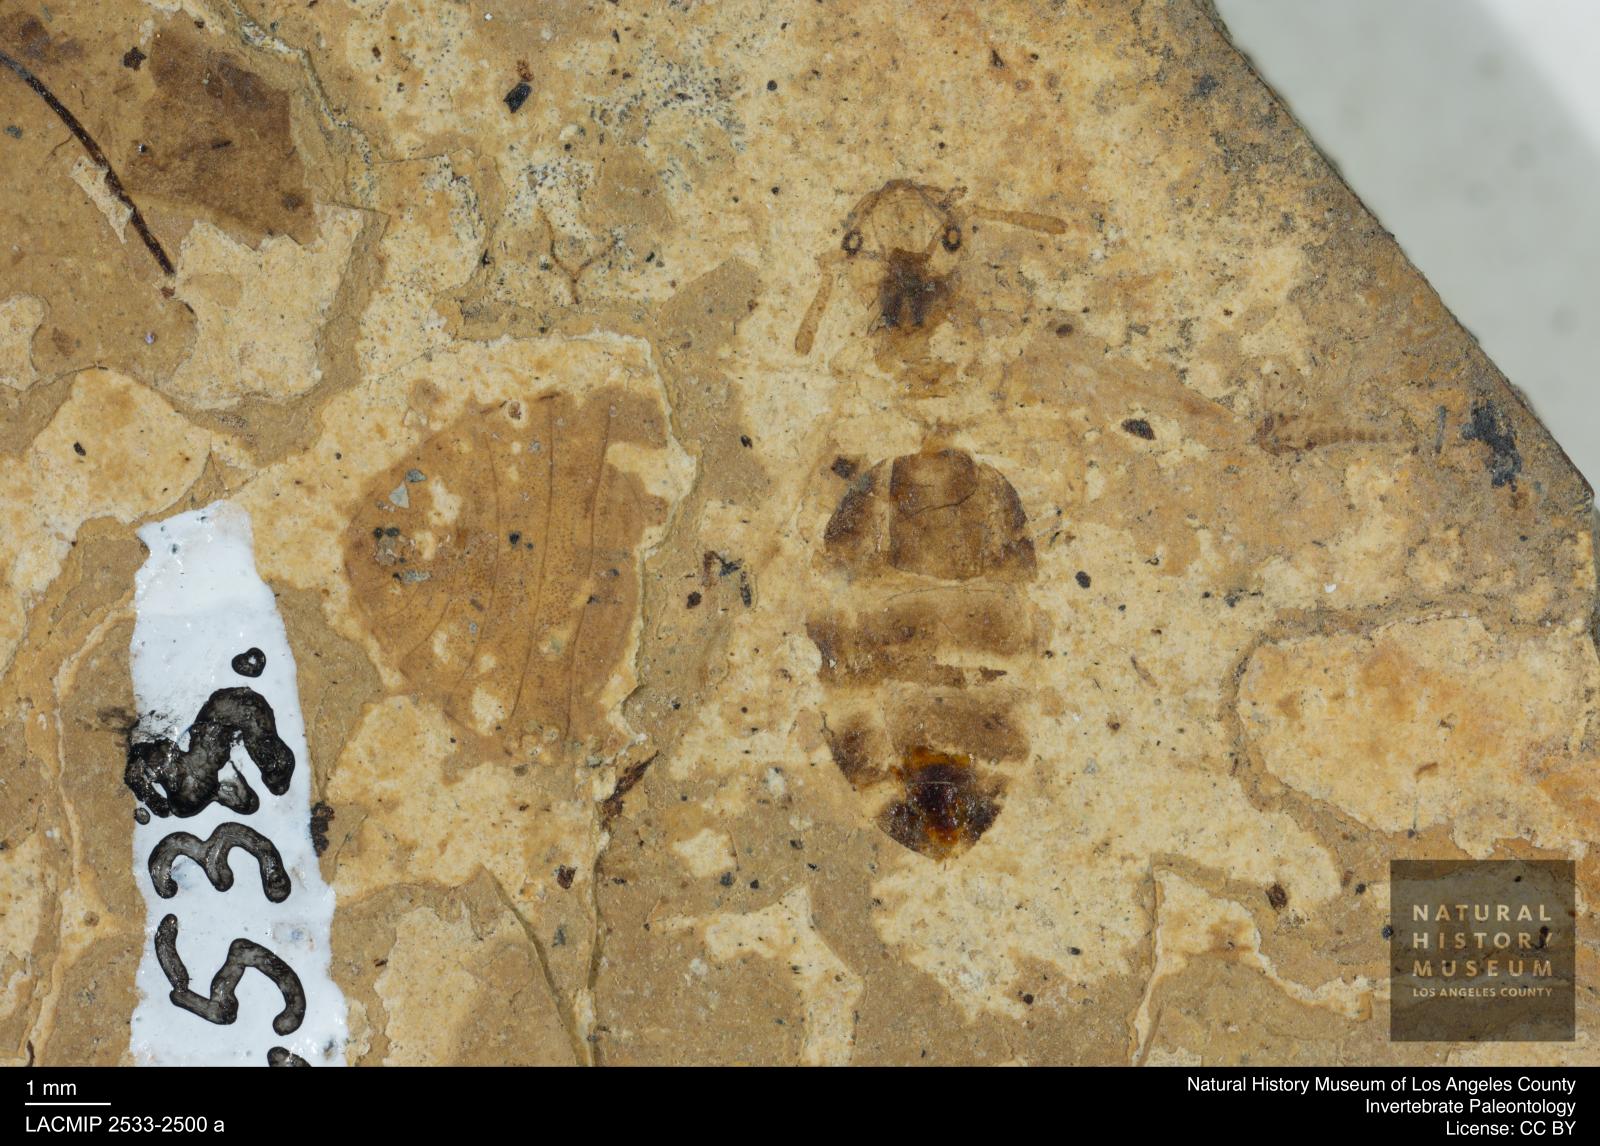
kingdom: Animalia
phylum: Arthropoda
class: Insecta
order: Hymenoptera
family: Formicidae
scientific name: Formicidae
